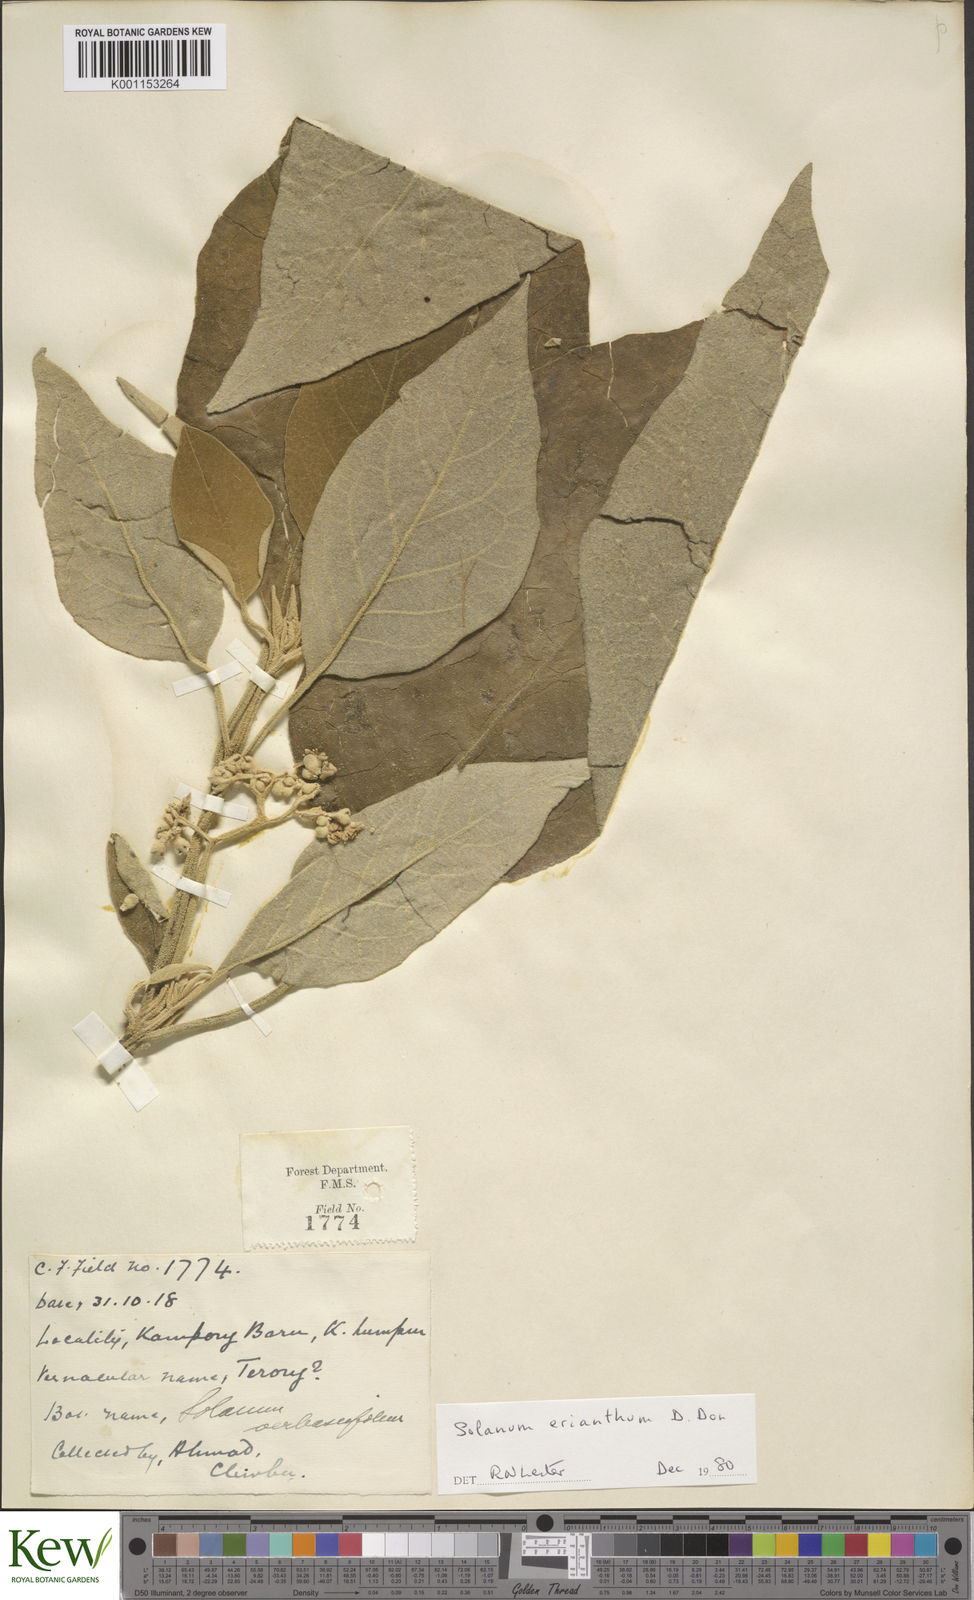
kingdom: Plantae
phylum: Tracheophyta
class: Magnoliopsida
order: Solanales
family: Solanaceae
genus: Solanum
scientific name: Solanum erianthum
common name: Tobacco-tree
